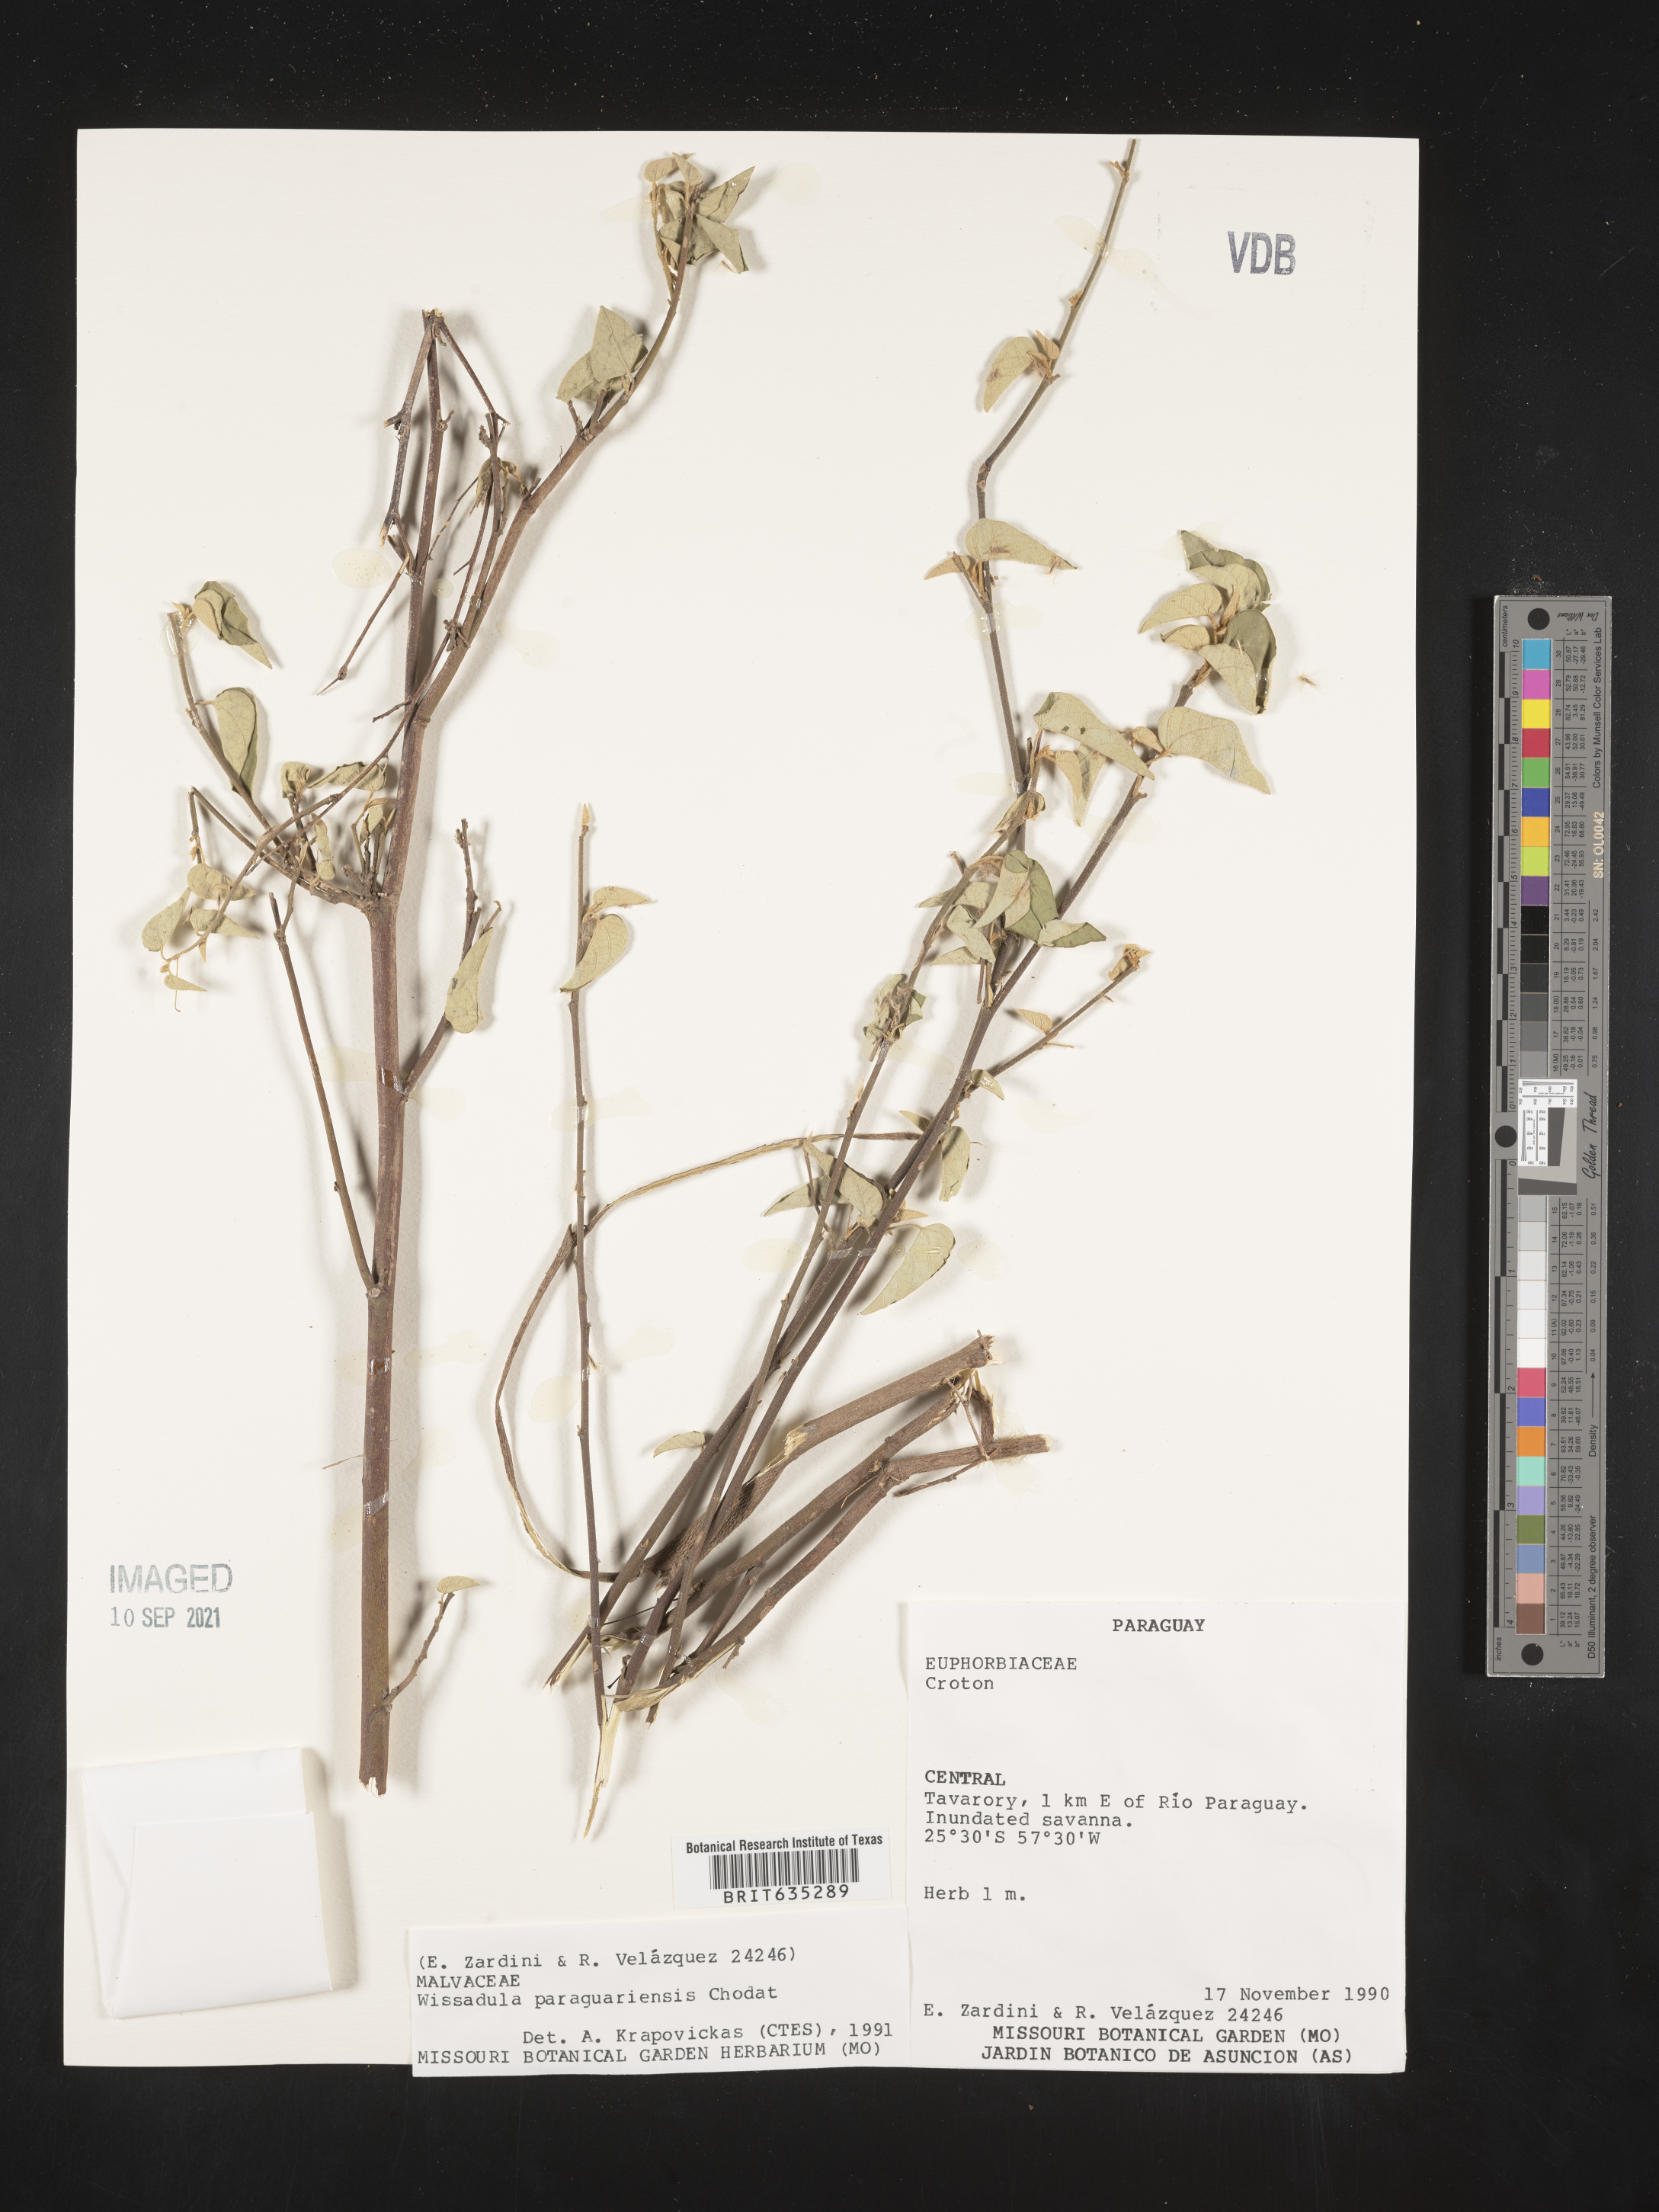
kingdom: Plantae
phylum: Tracheophyta
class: Magnoliopsida
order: Malvales
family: Malvaceae
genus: Wissadula
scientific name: Wissadula
